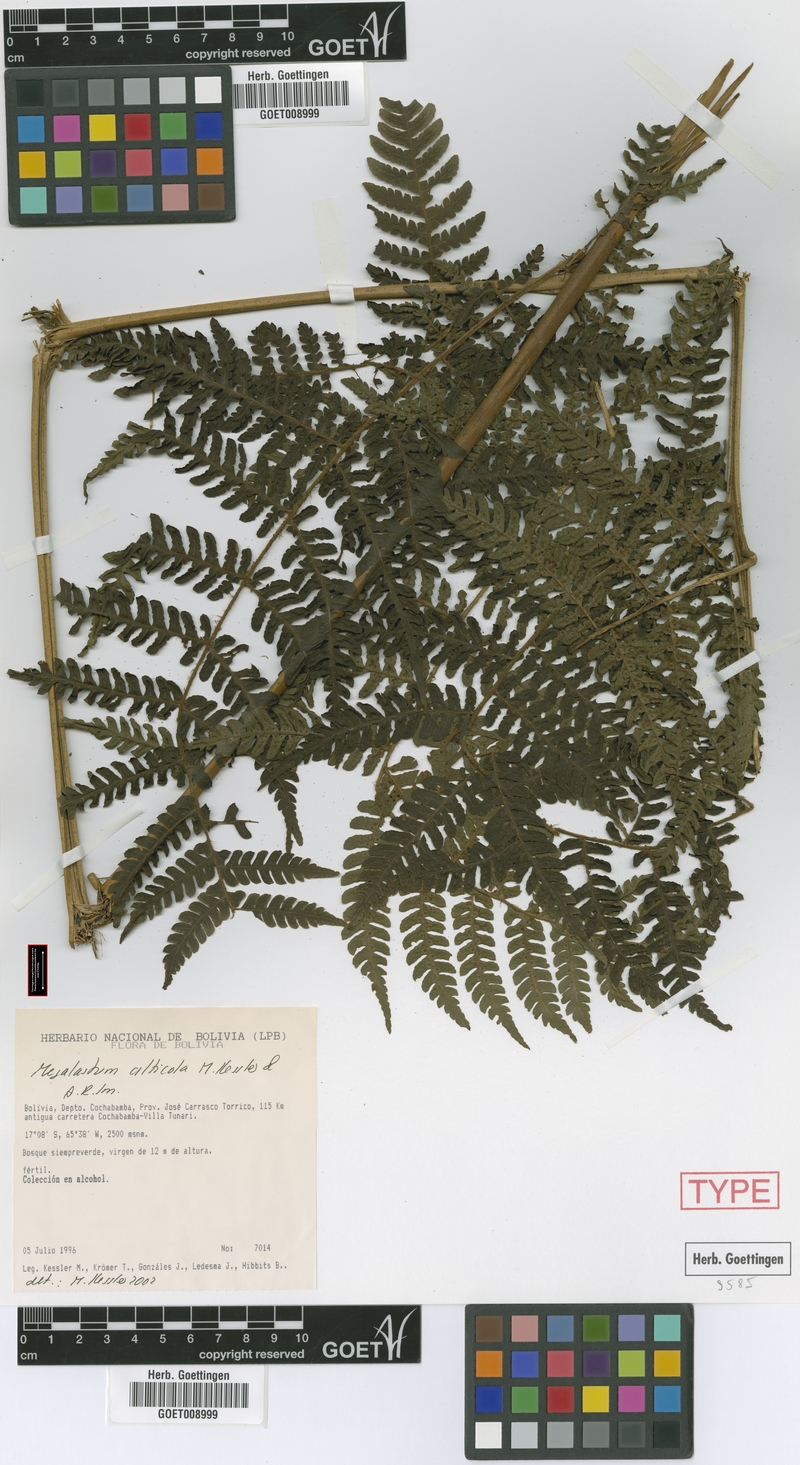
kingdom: Plantae
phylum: Tracheophyta
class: Polypodiopsida
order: Polypodiales
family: Dryopteridaceae
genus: Megalastrum
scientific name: Megalastrum alticola
